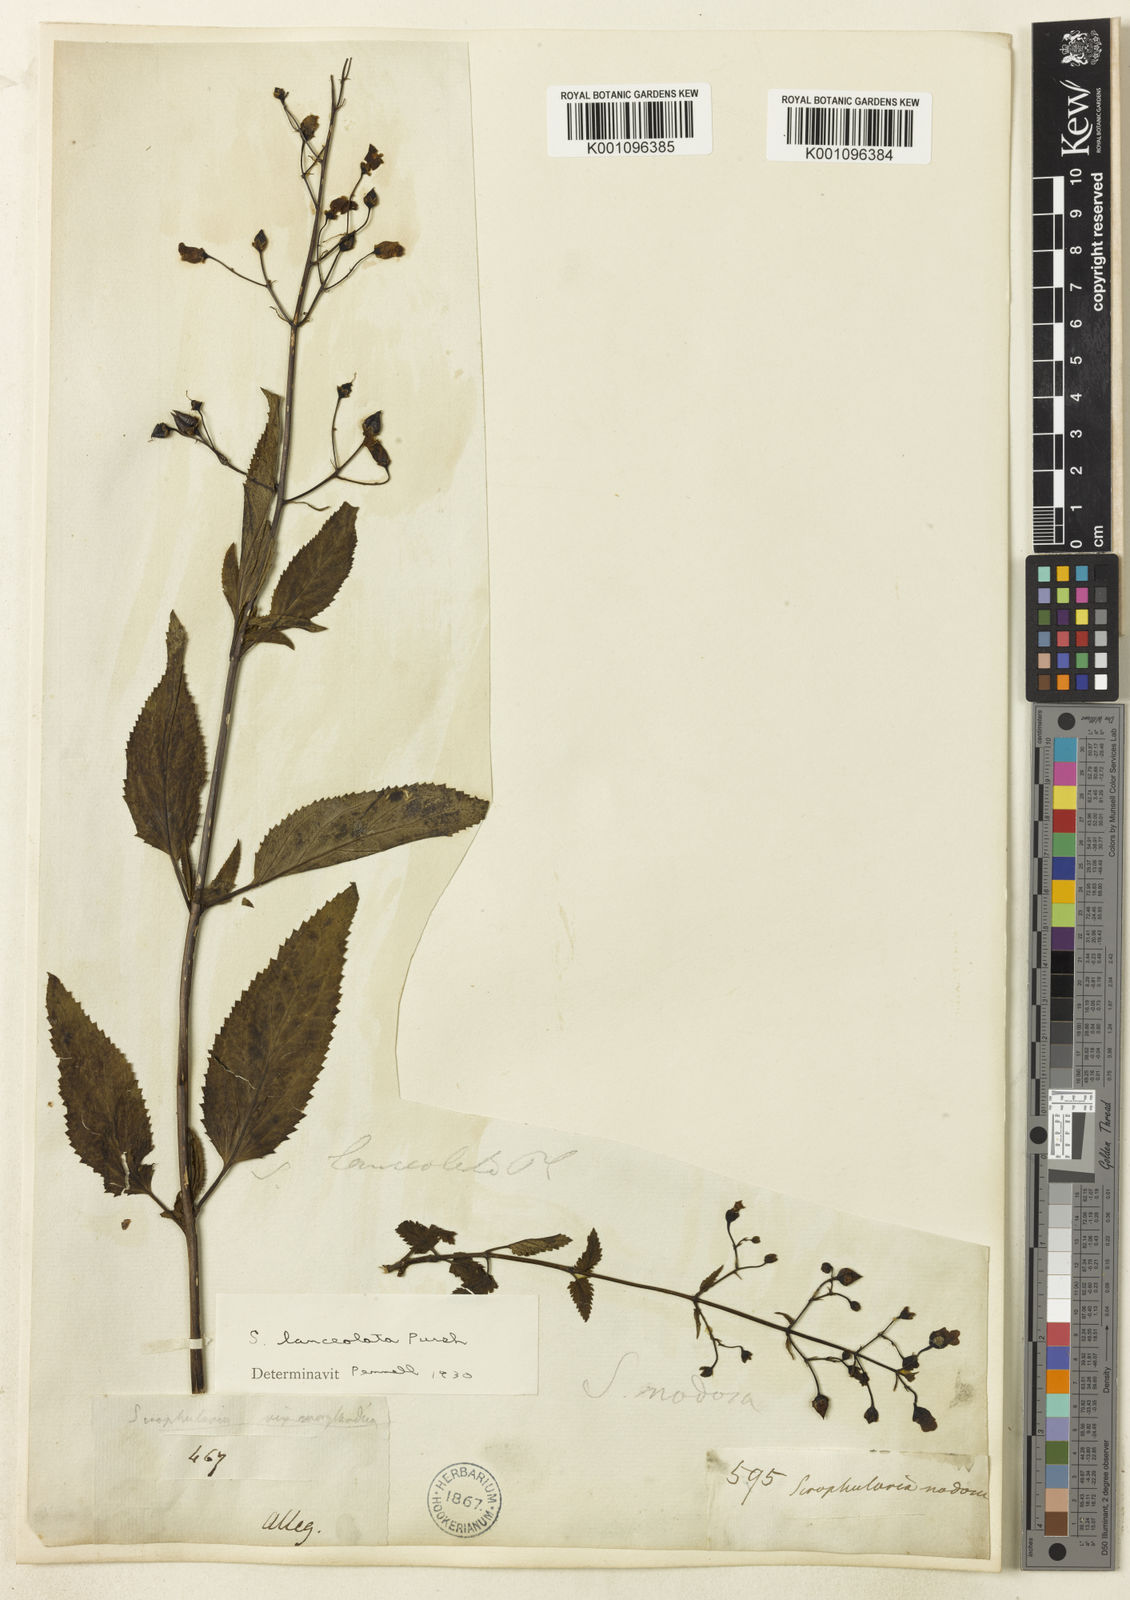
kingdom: Plantae
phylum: Tracheophyta
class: Magnoliopsida
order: Lamiales
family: Scrophulariaceae
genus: Scrophularia
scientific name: Scrophularia lanceolata
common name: American figwort
